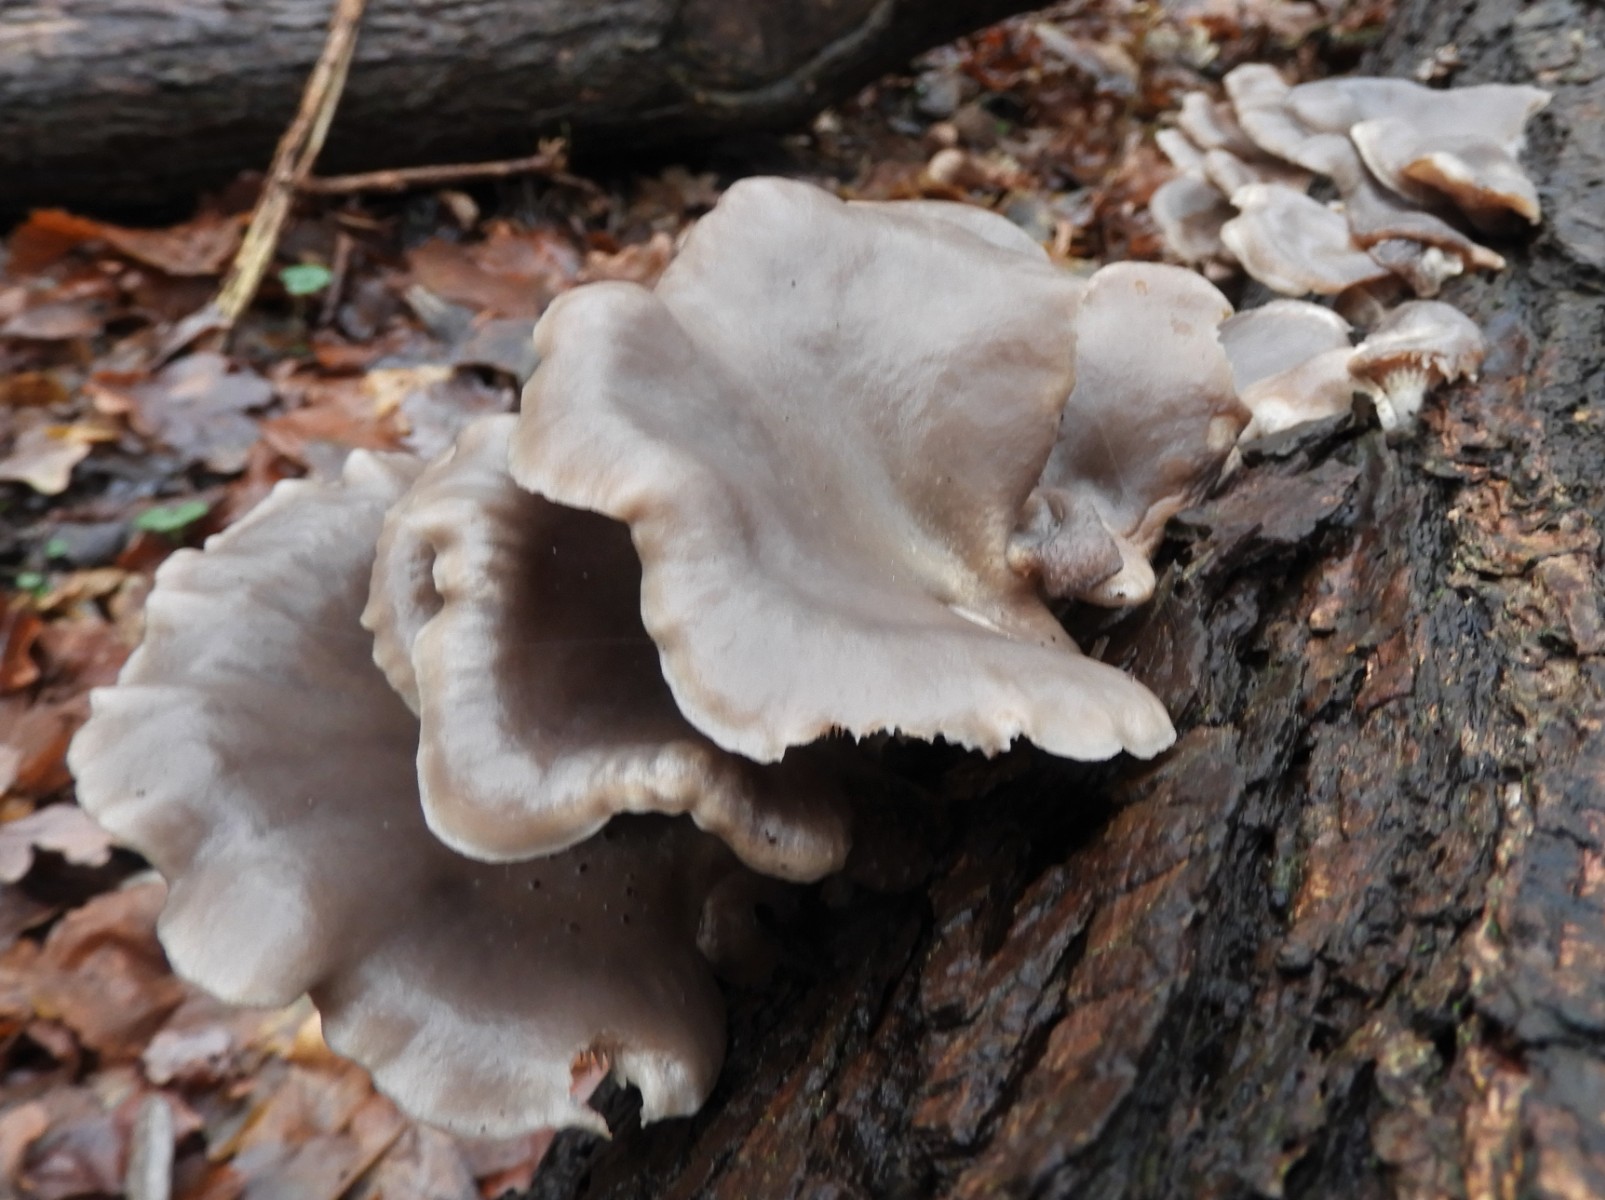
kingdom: Fungi
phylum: Basidiomycota
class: Agaricomycetes
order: Agaricales
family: Pleurotaceae
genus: Pleurotus
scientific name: Pleurotus ostreatus
